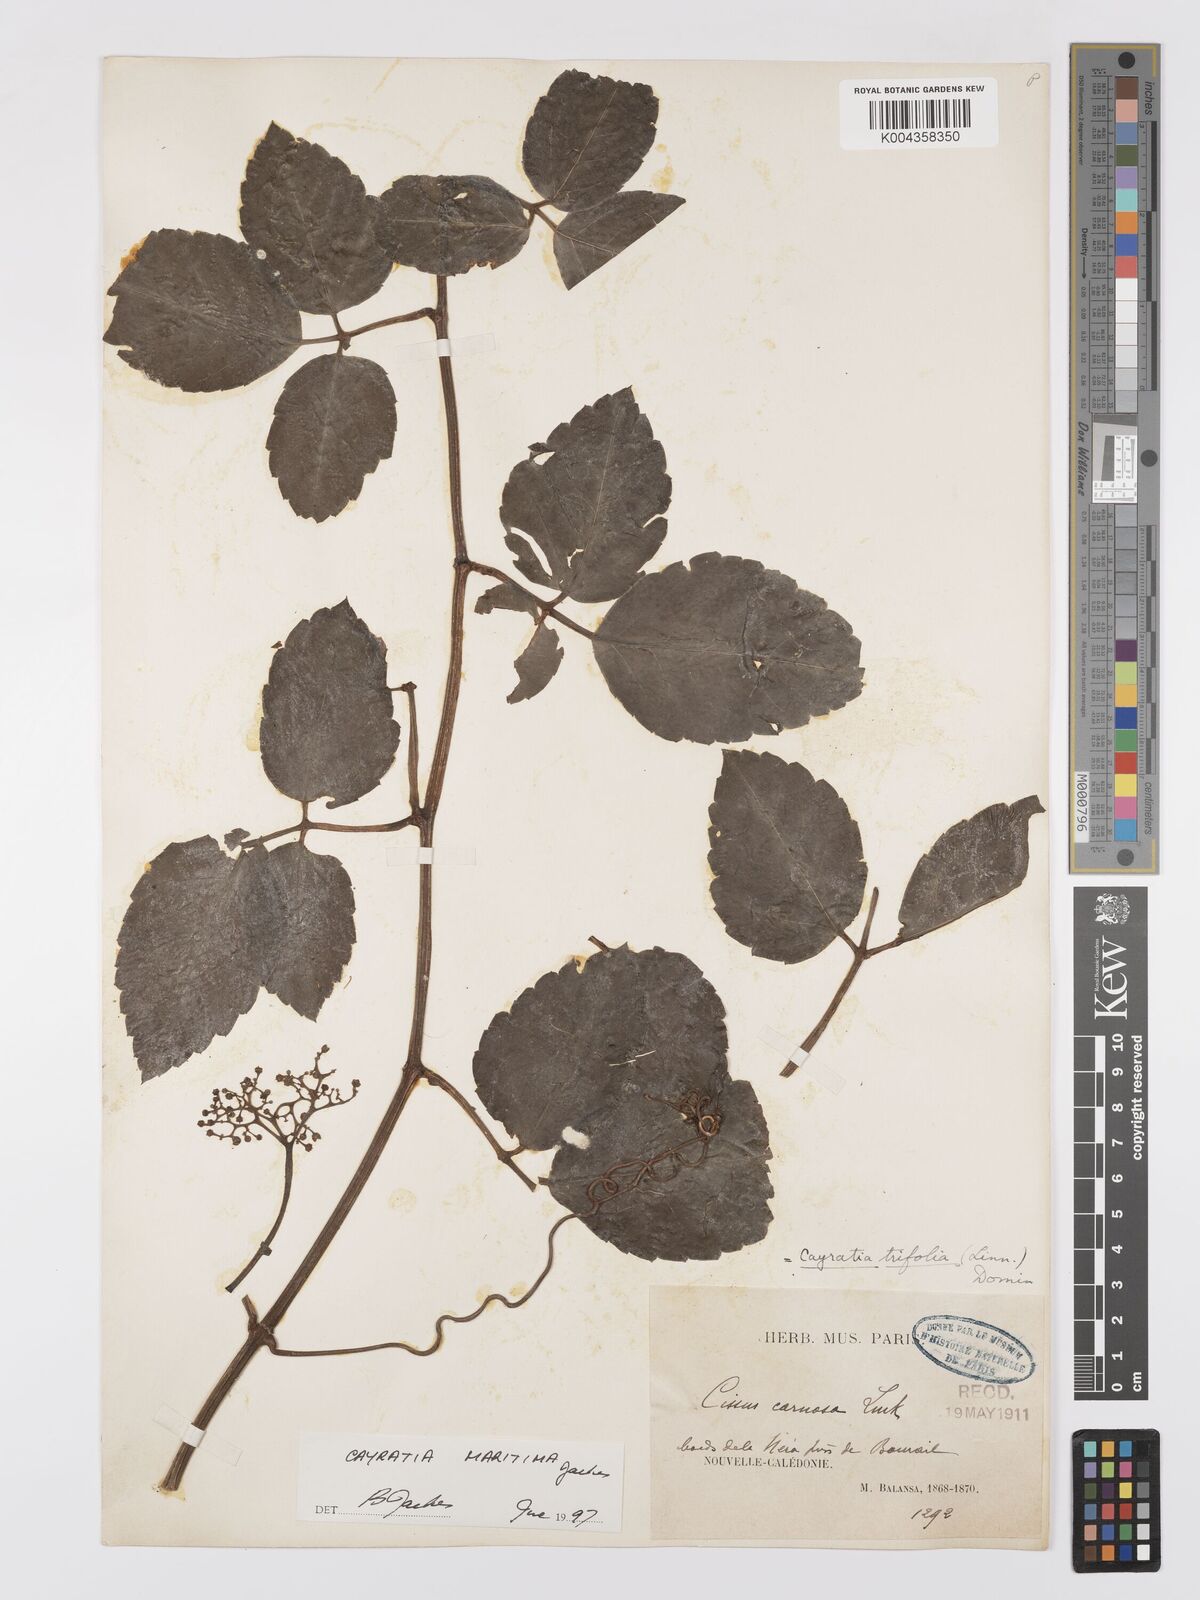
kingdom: Plantae
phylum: Tracheophyta
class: Magnoliopsida
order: Vitales
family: Vitaceae
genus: Causonis
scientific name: Causonis maritima
